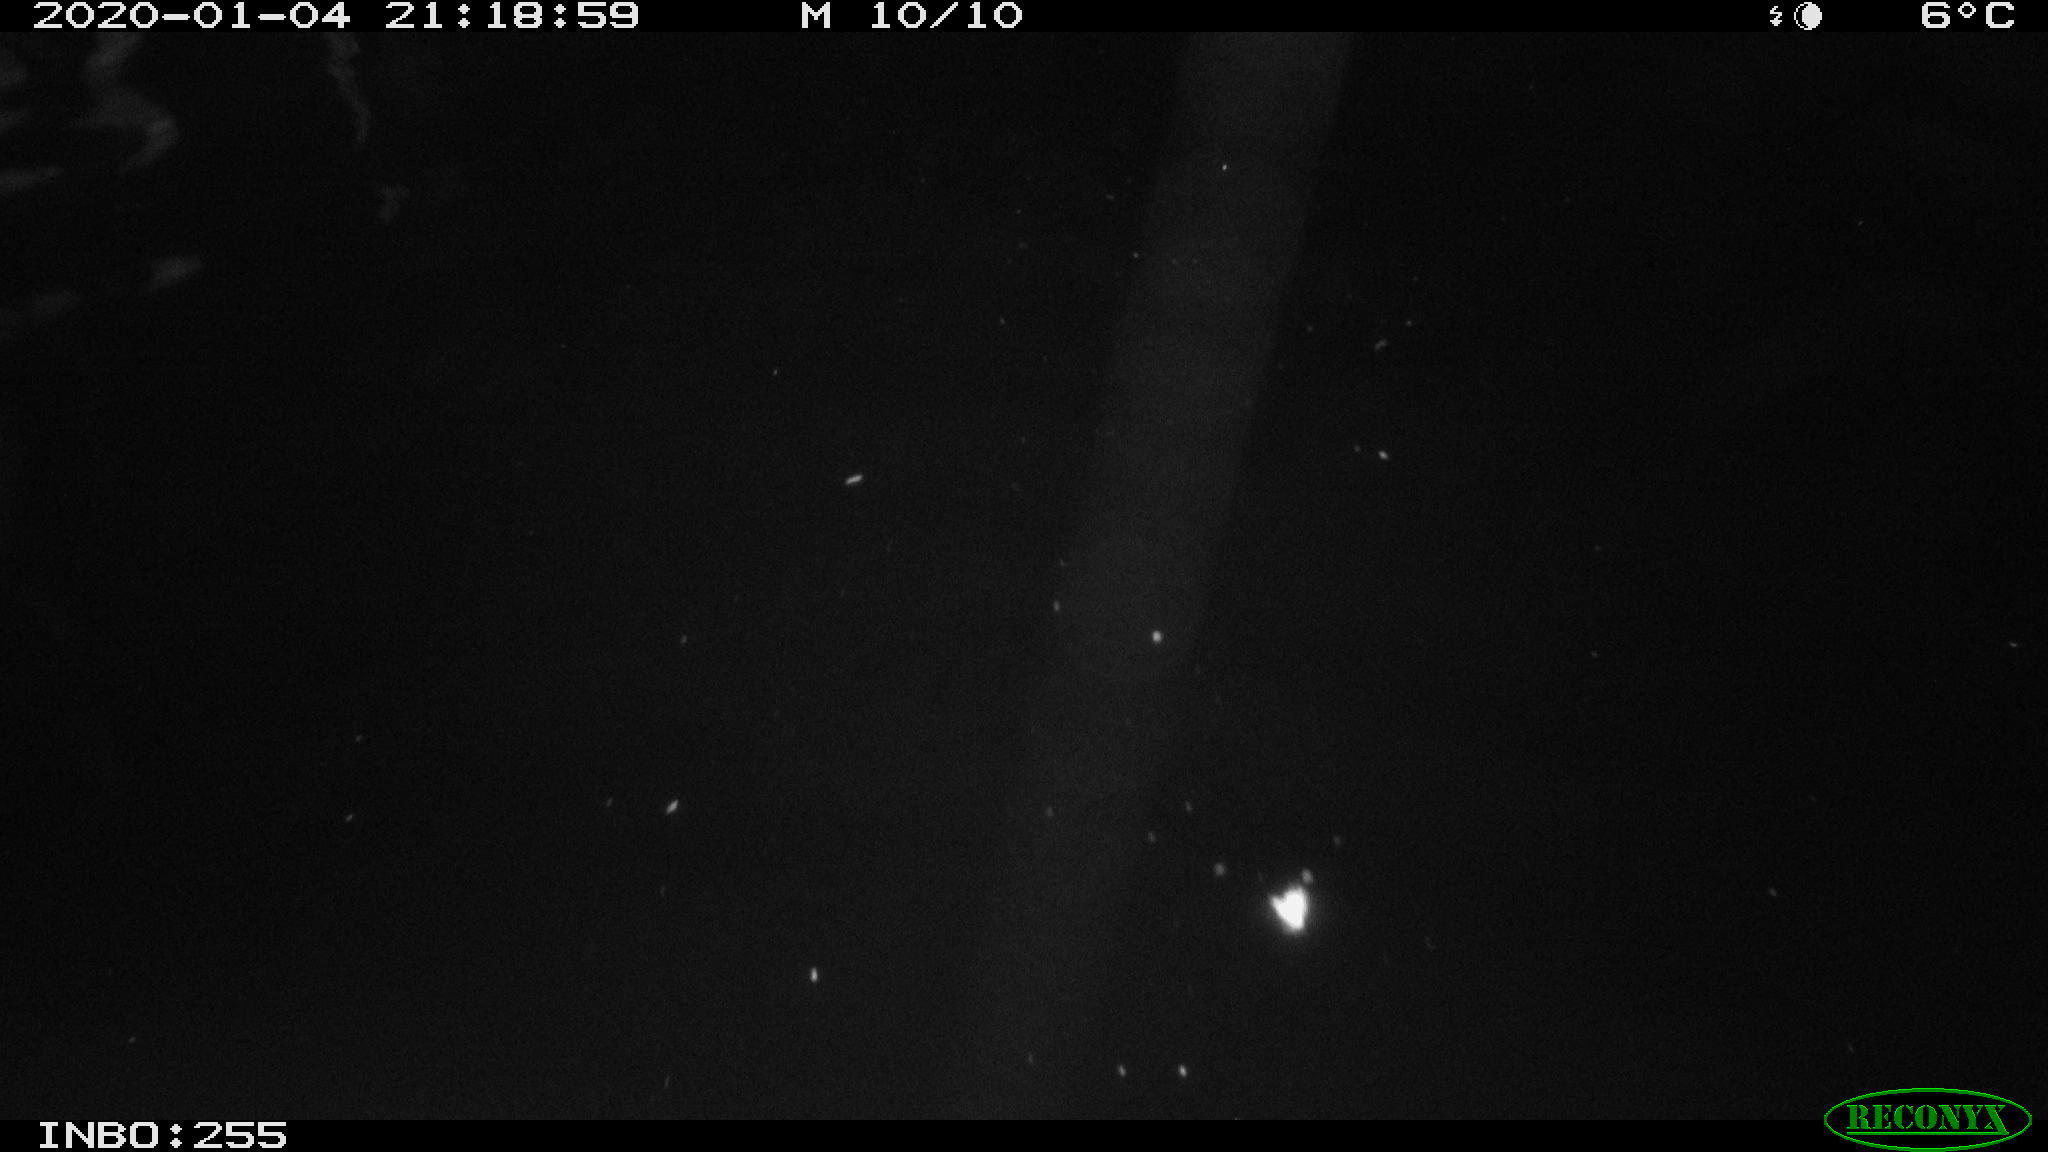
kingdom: Animalia
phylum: Chordata
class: Aves
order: Anseriformes
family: Anatidae
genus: Anas
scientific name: Anas platyrhynchos
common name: Mallard
